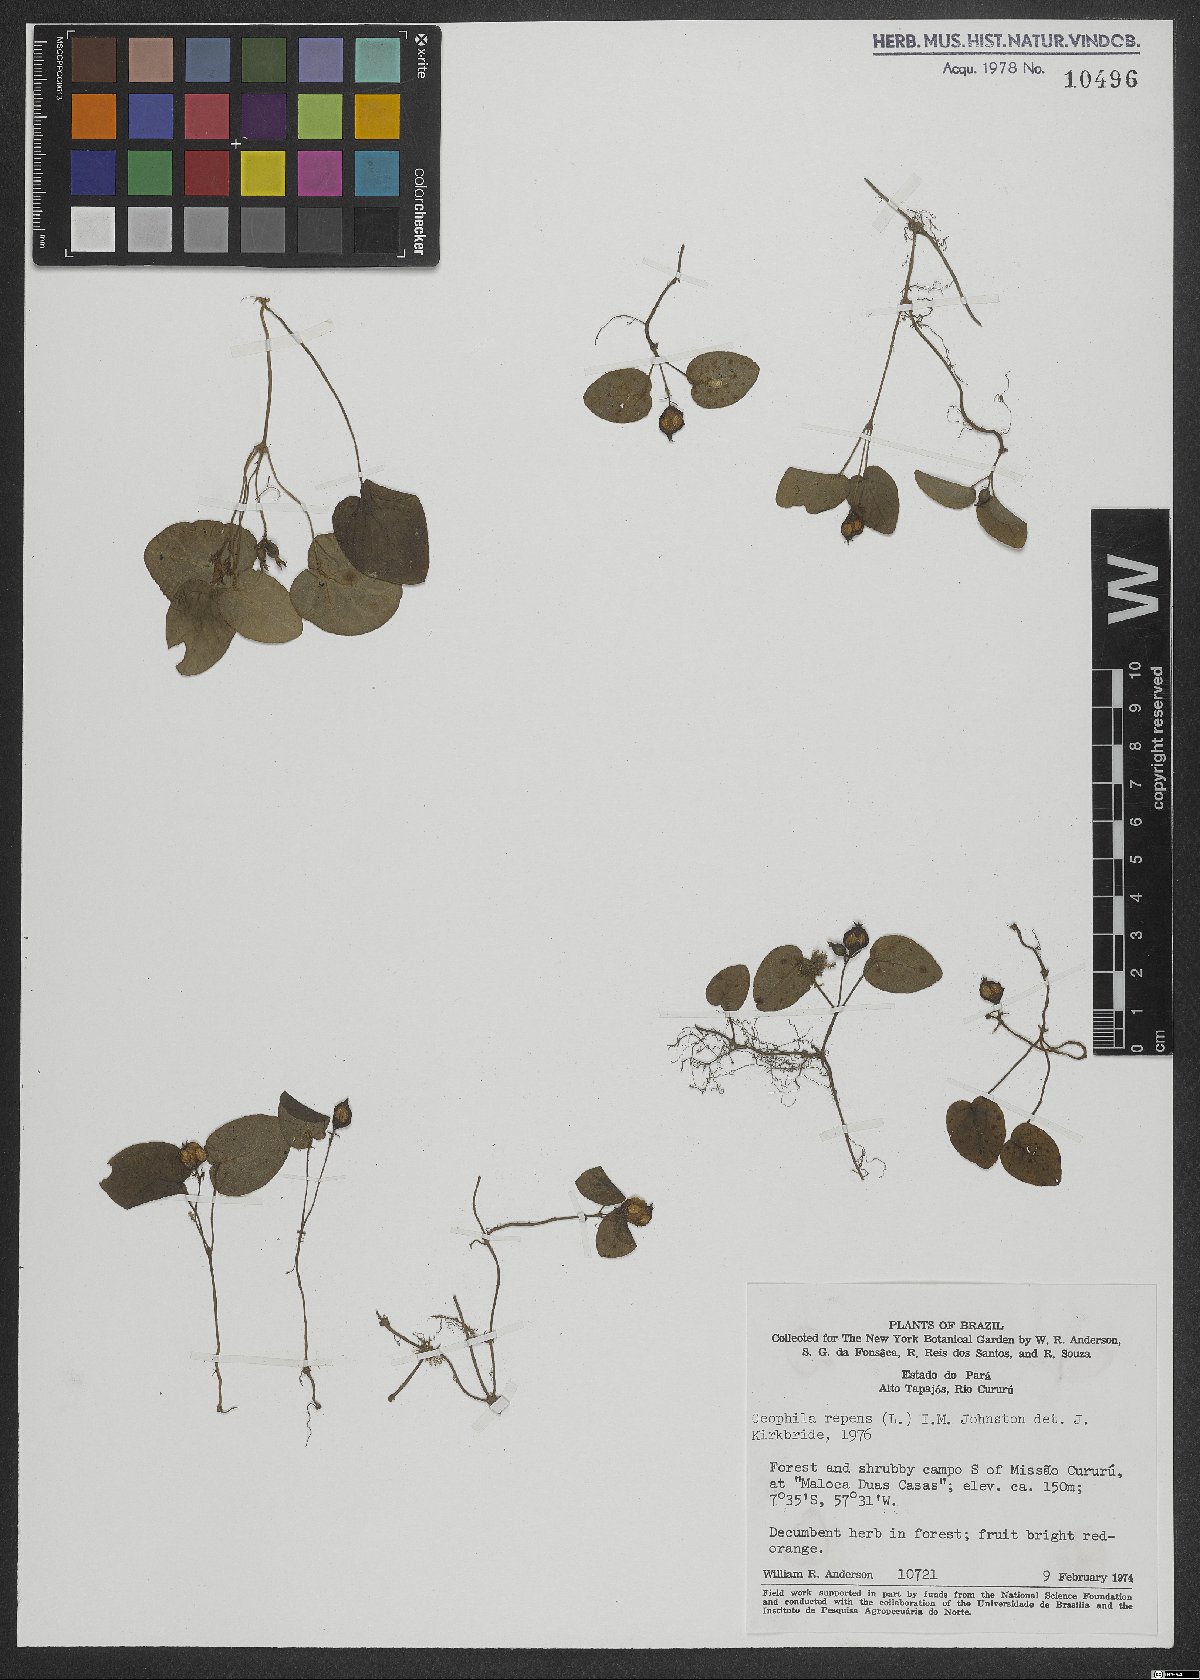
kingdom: Plantae
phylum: Tracheophyta
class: Magnoliopsida
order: Gentianales
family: Rubiaceae
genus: Geophila
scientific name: Geophila repens
